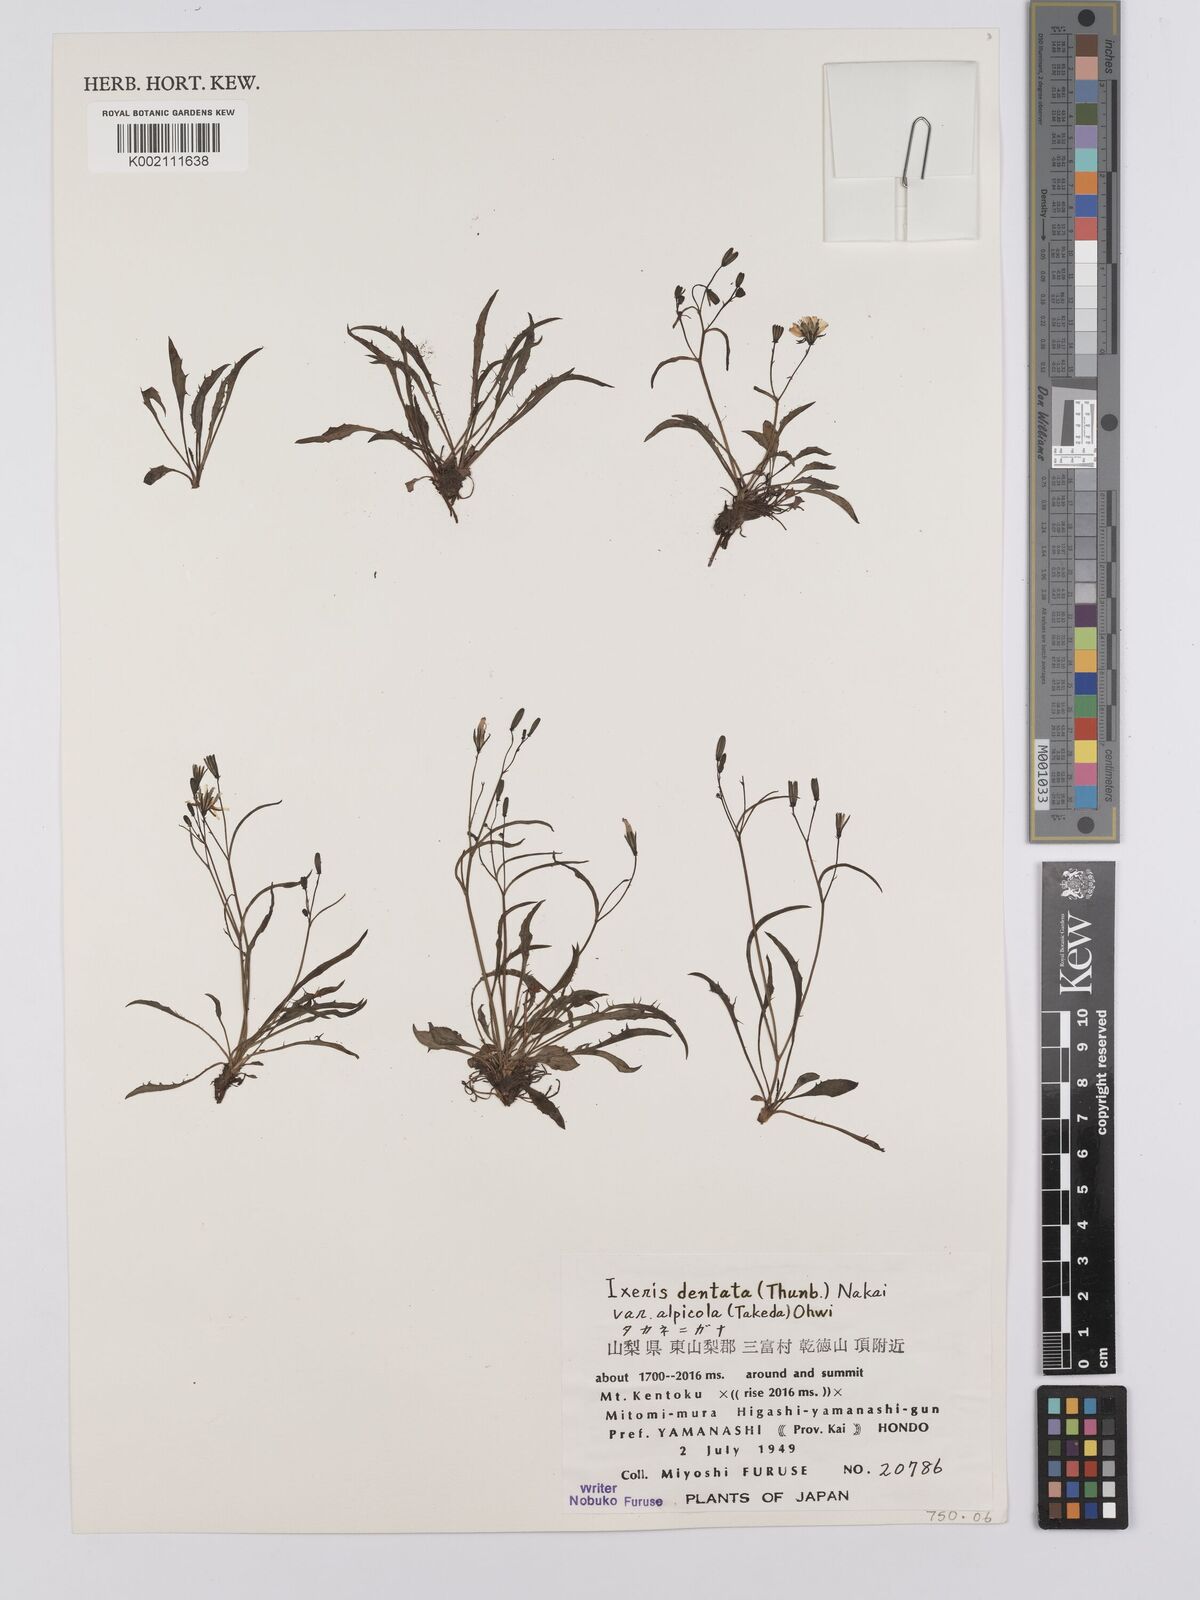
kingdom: Plantae
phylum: Tracheophyta
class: Magnoliopsida
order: Asterales
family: Asteraceae
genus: Ixeridium
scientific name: Ixeridium alpicola
